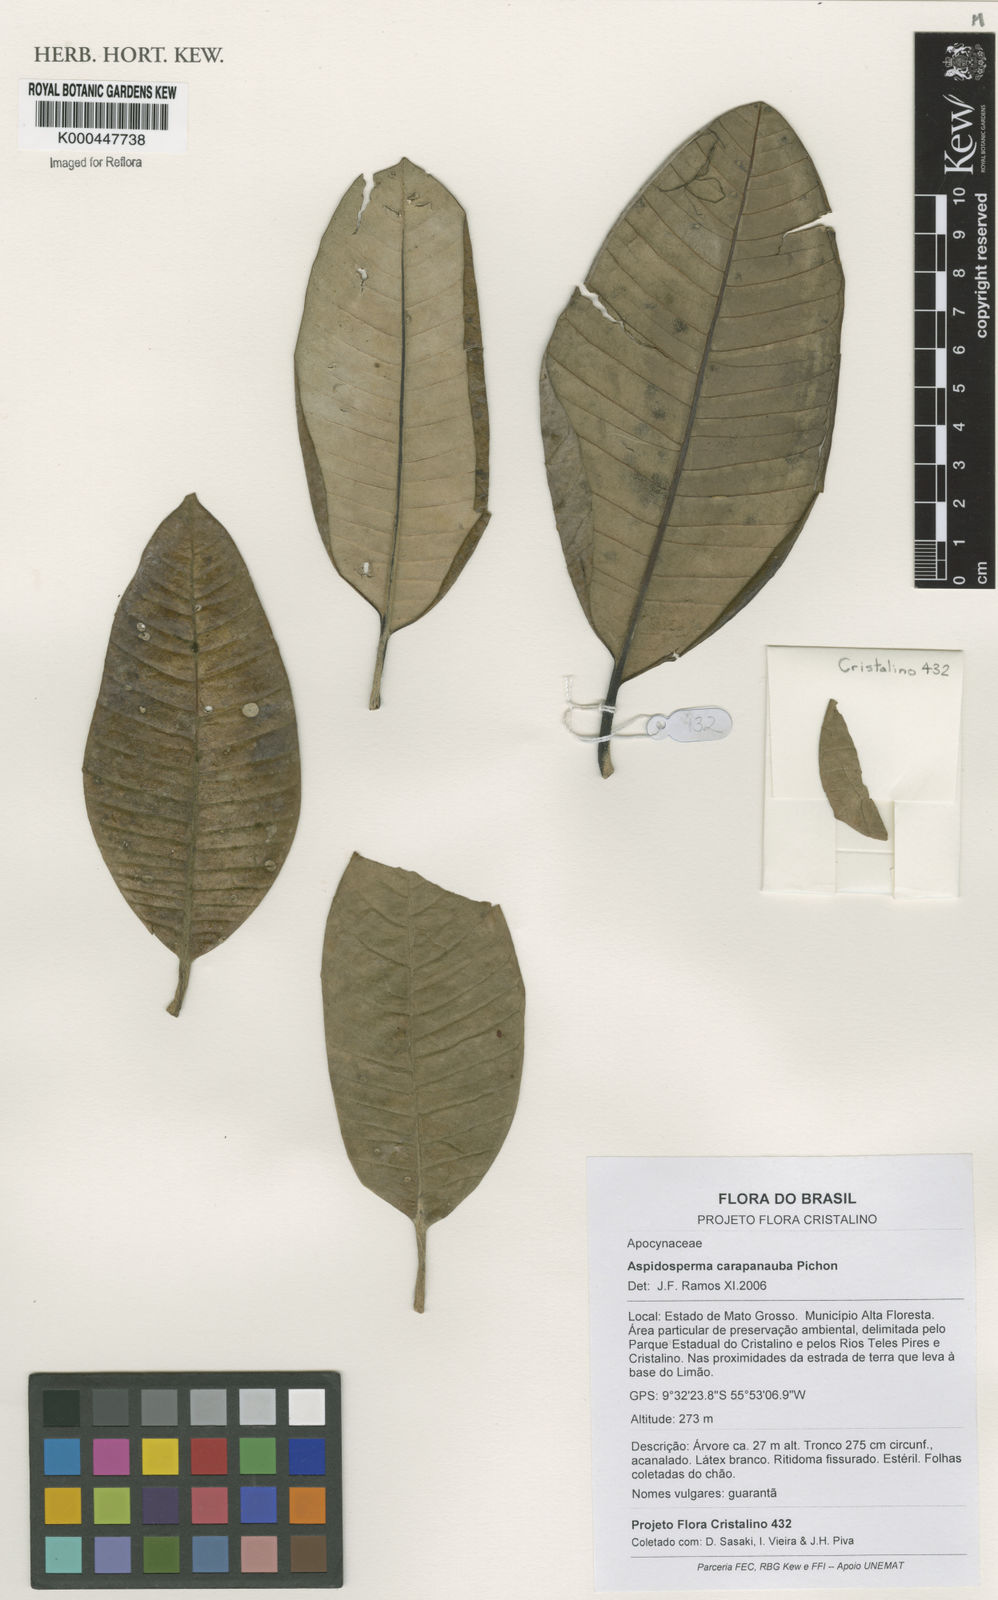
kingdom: Plantae
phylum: Tracheophyta
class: Magnoliopsida
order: Gentianales
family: Apocynaceae
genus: Aspidosperma
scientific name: Aspidosperma carapanauba
